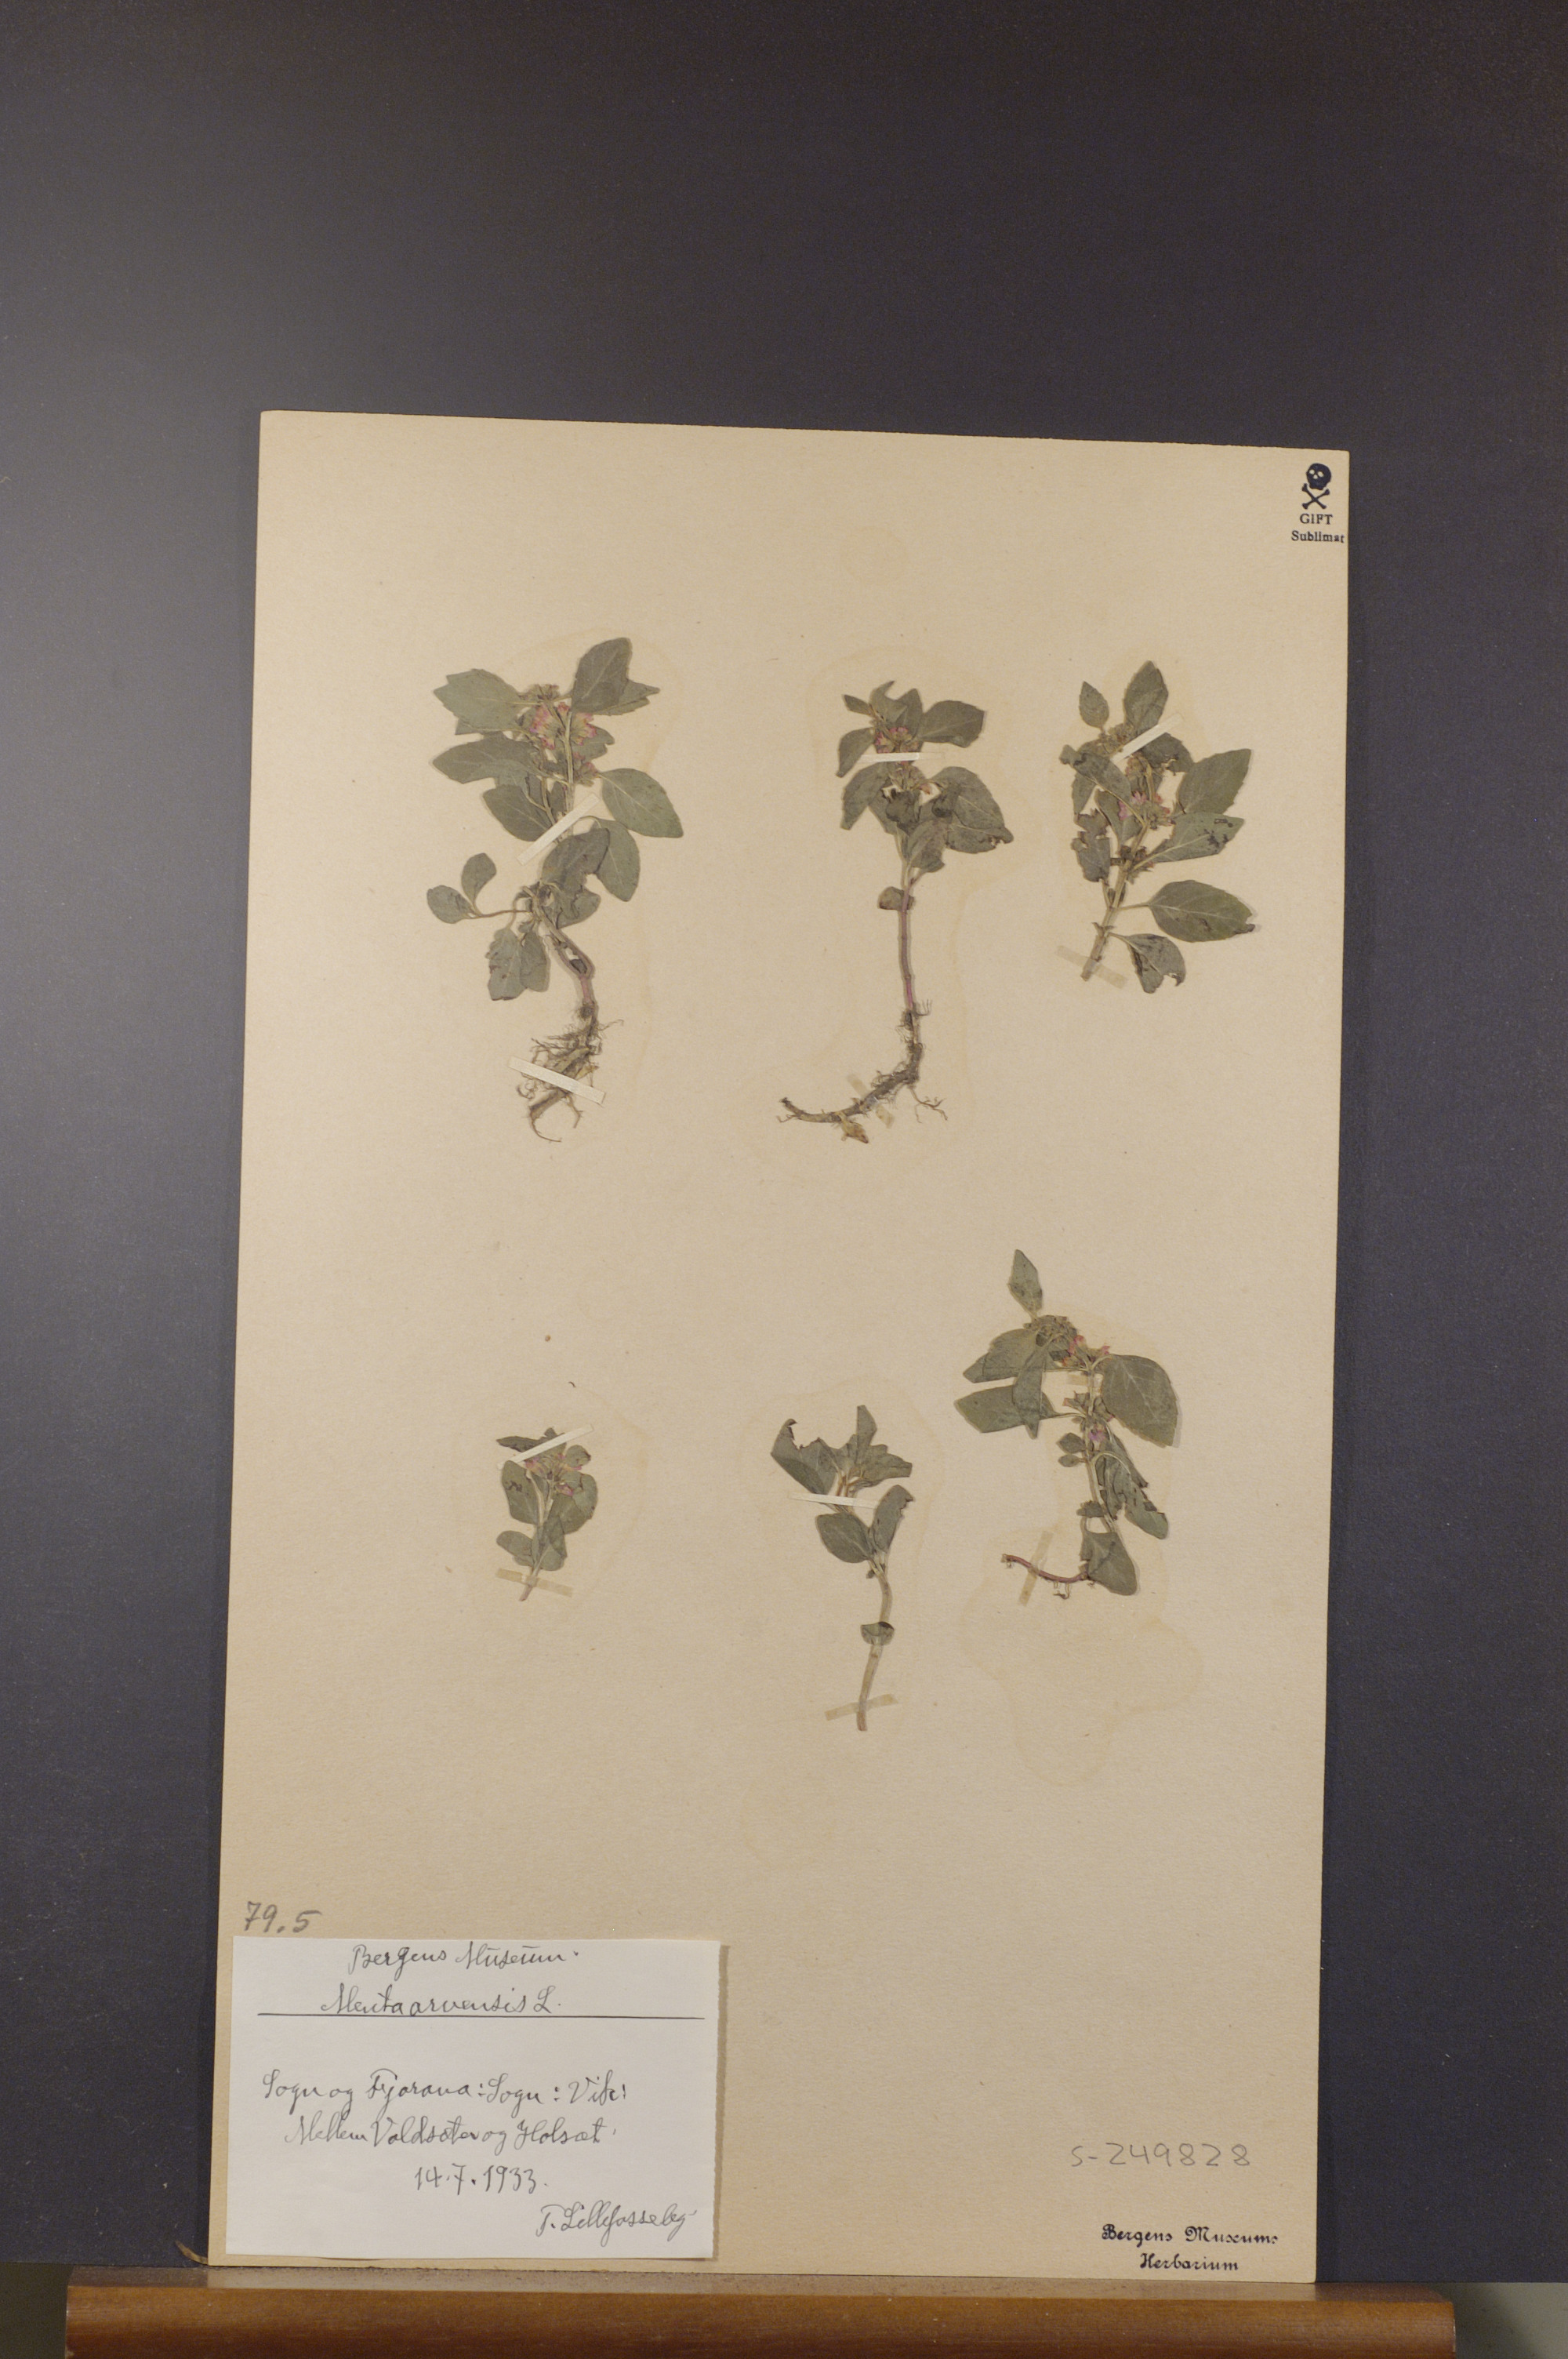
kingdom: Plantae
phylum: Tracheophyta
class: Magnoliopsida
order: Lamiales
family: Lamiaceae
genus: Mentha
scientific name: Mentha arvensis
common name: Corn mint
